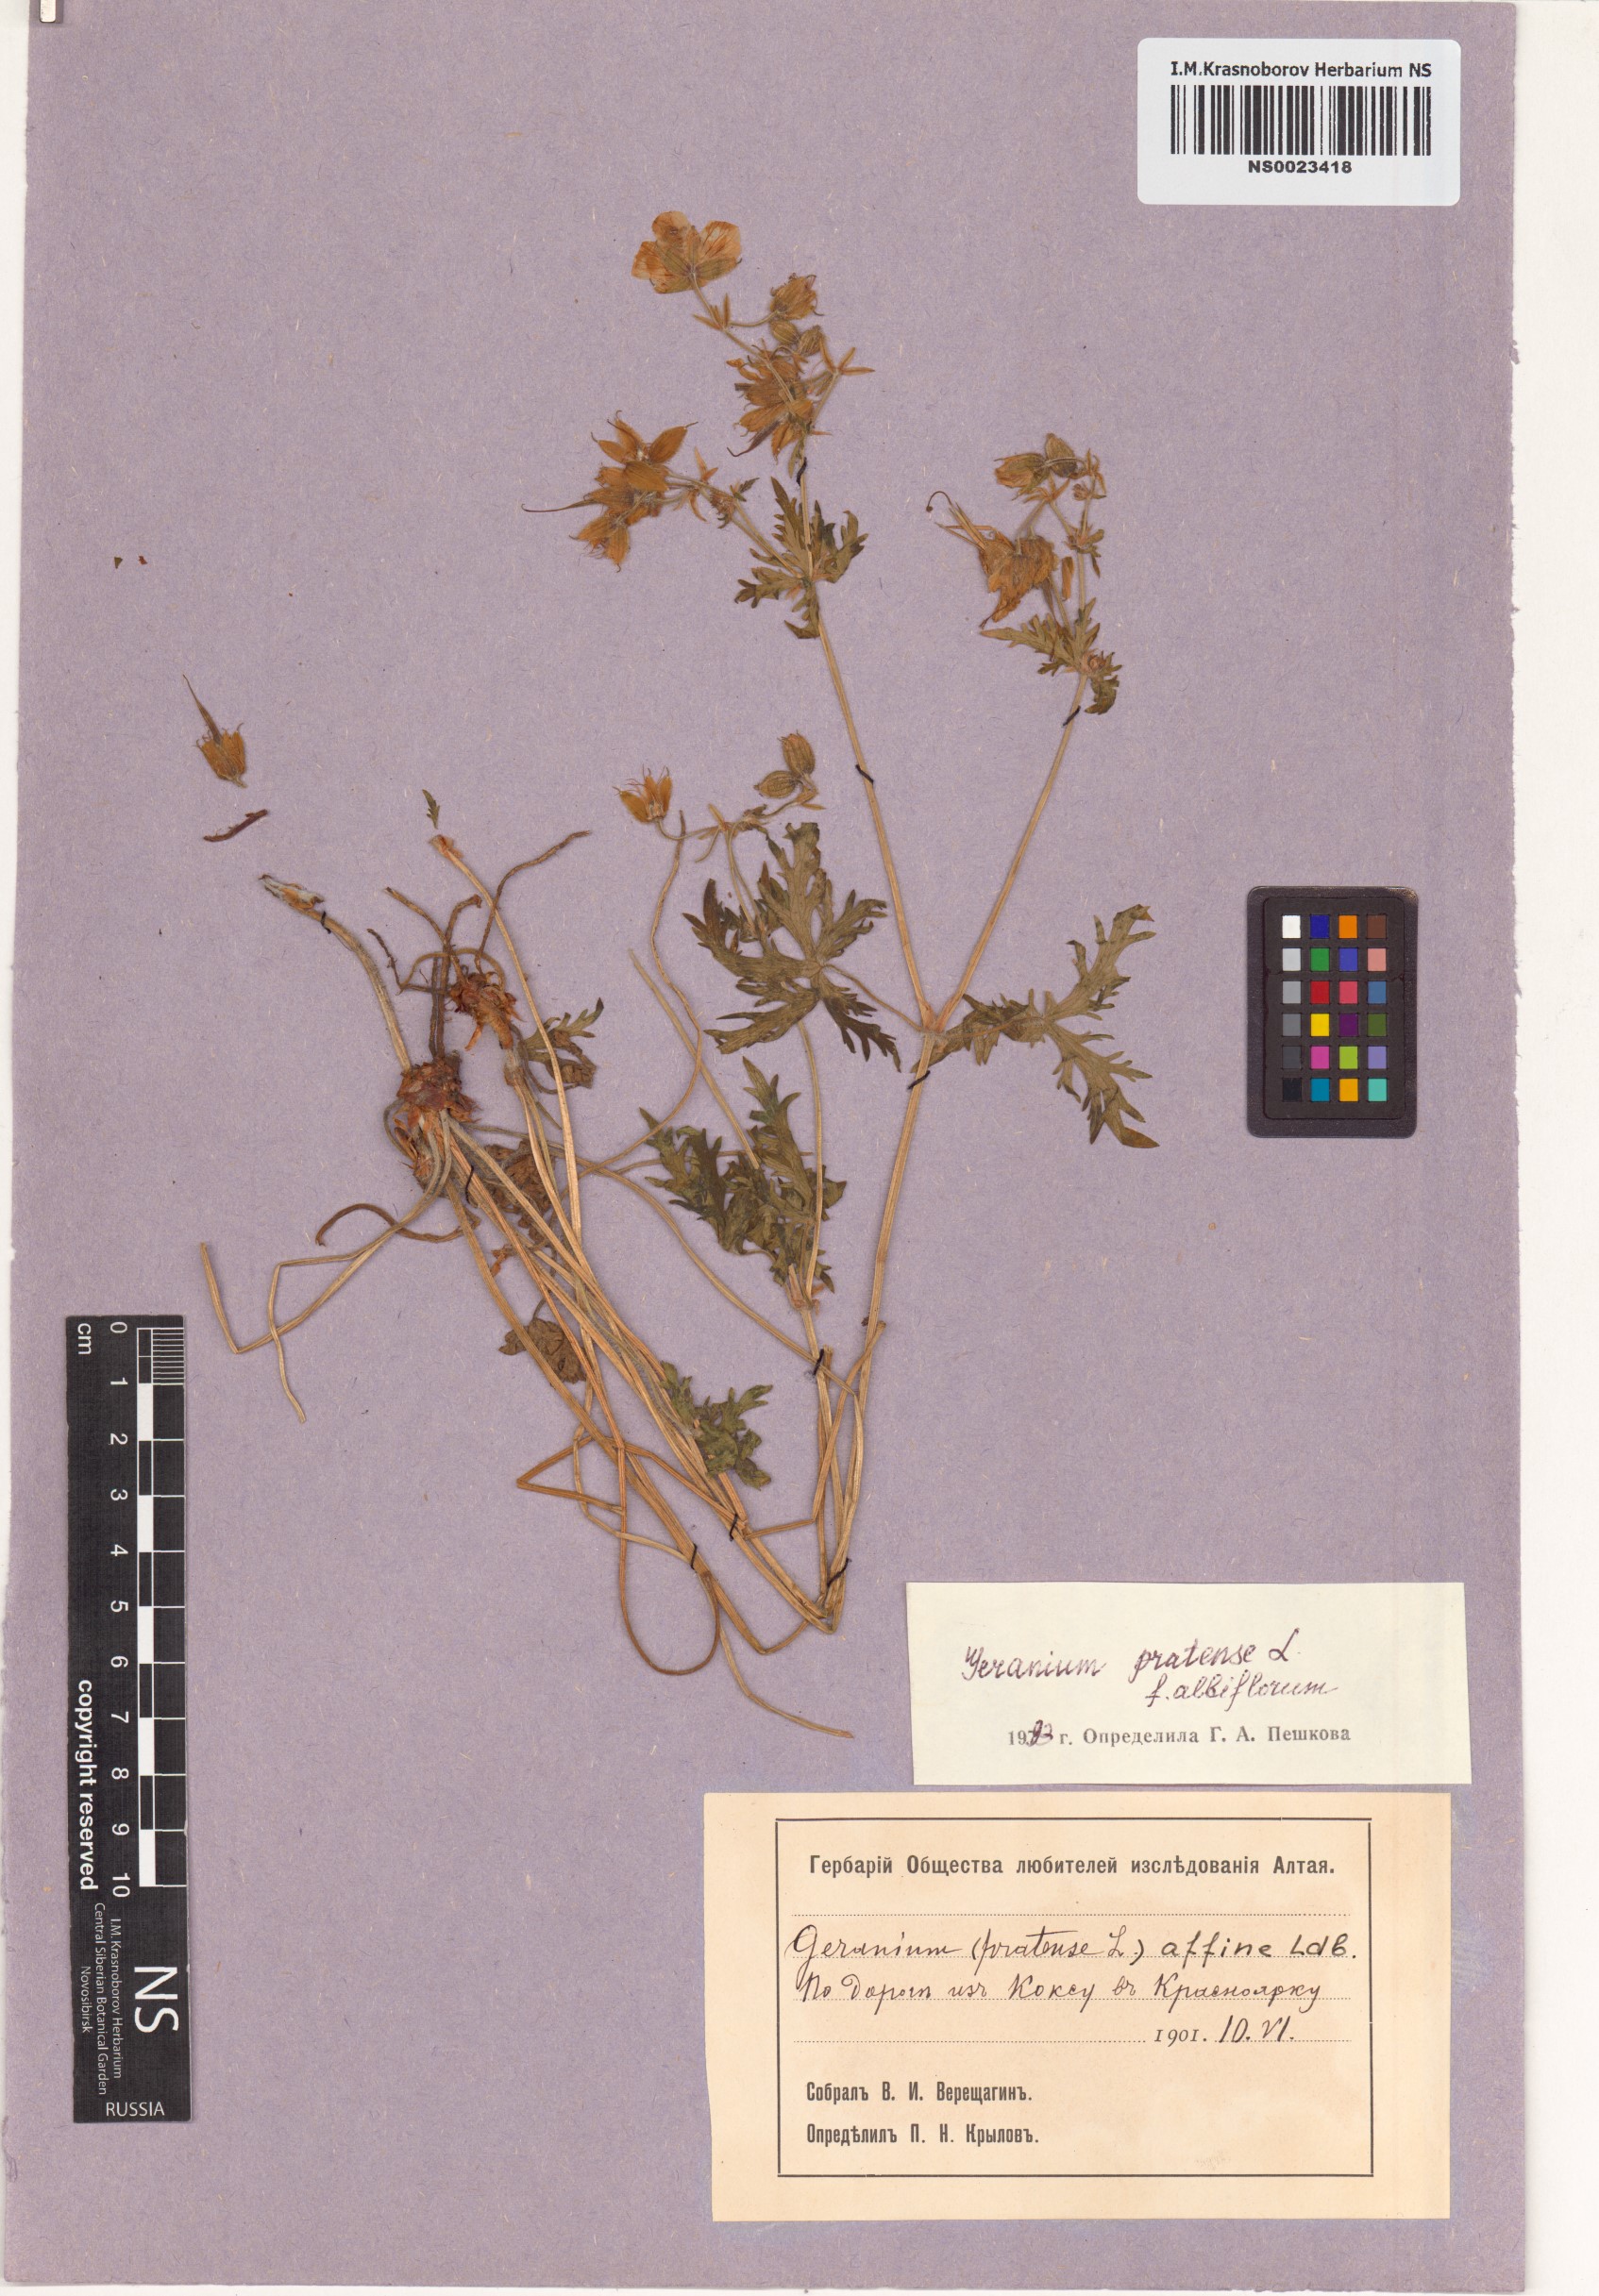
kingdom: Plantae
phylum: Tracheophyta
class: Magnoliopsida
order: Geraniales
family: Geraniaceae
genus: Geranium
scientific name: Geranium pratense
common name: Meadow crane's-bill
